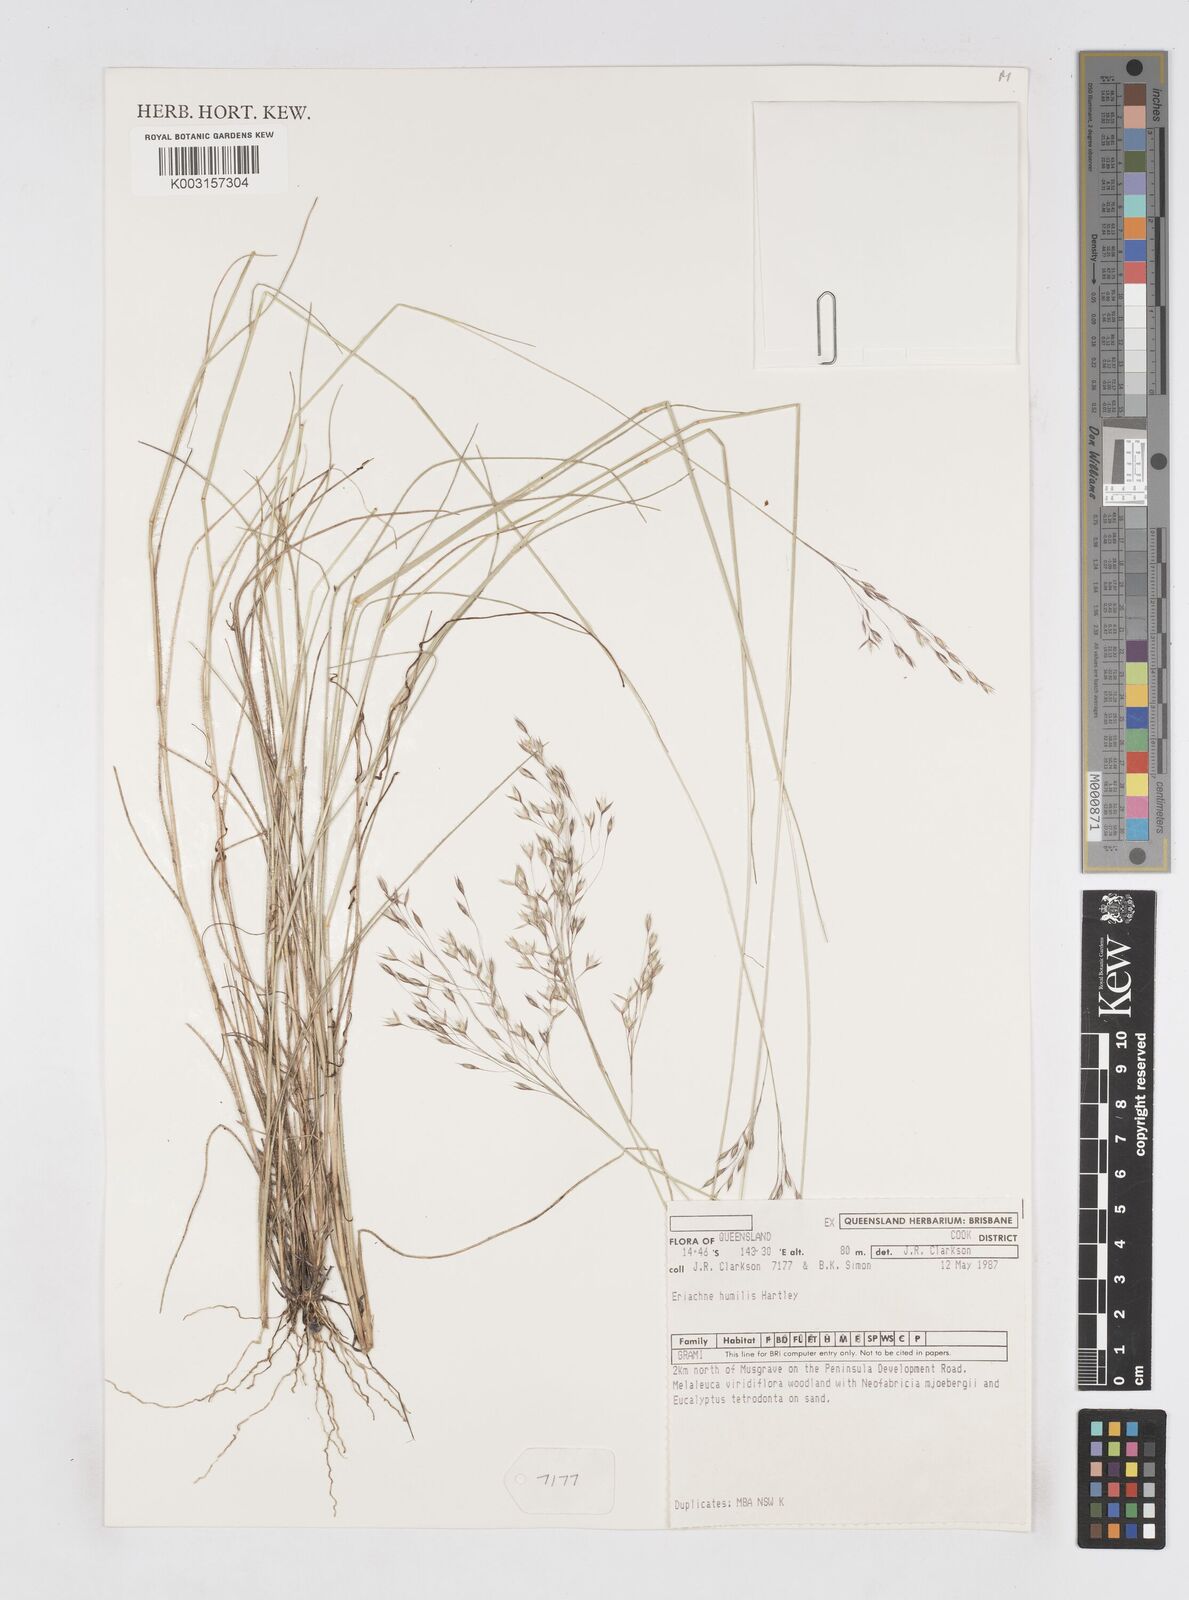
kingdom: Plantae
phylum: Tracheophyta
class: Liliopsida
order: Poales
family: Poaceae
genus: Eriachne
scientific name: Eriachne humilis
